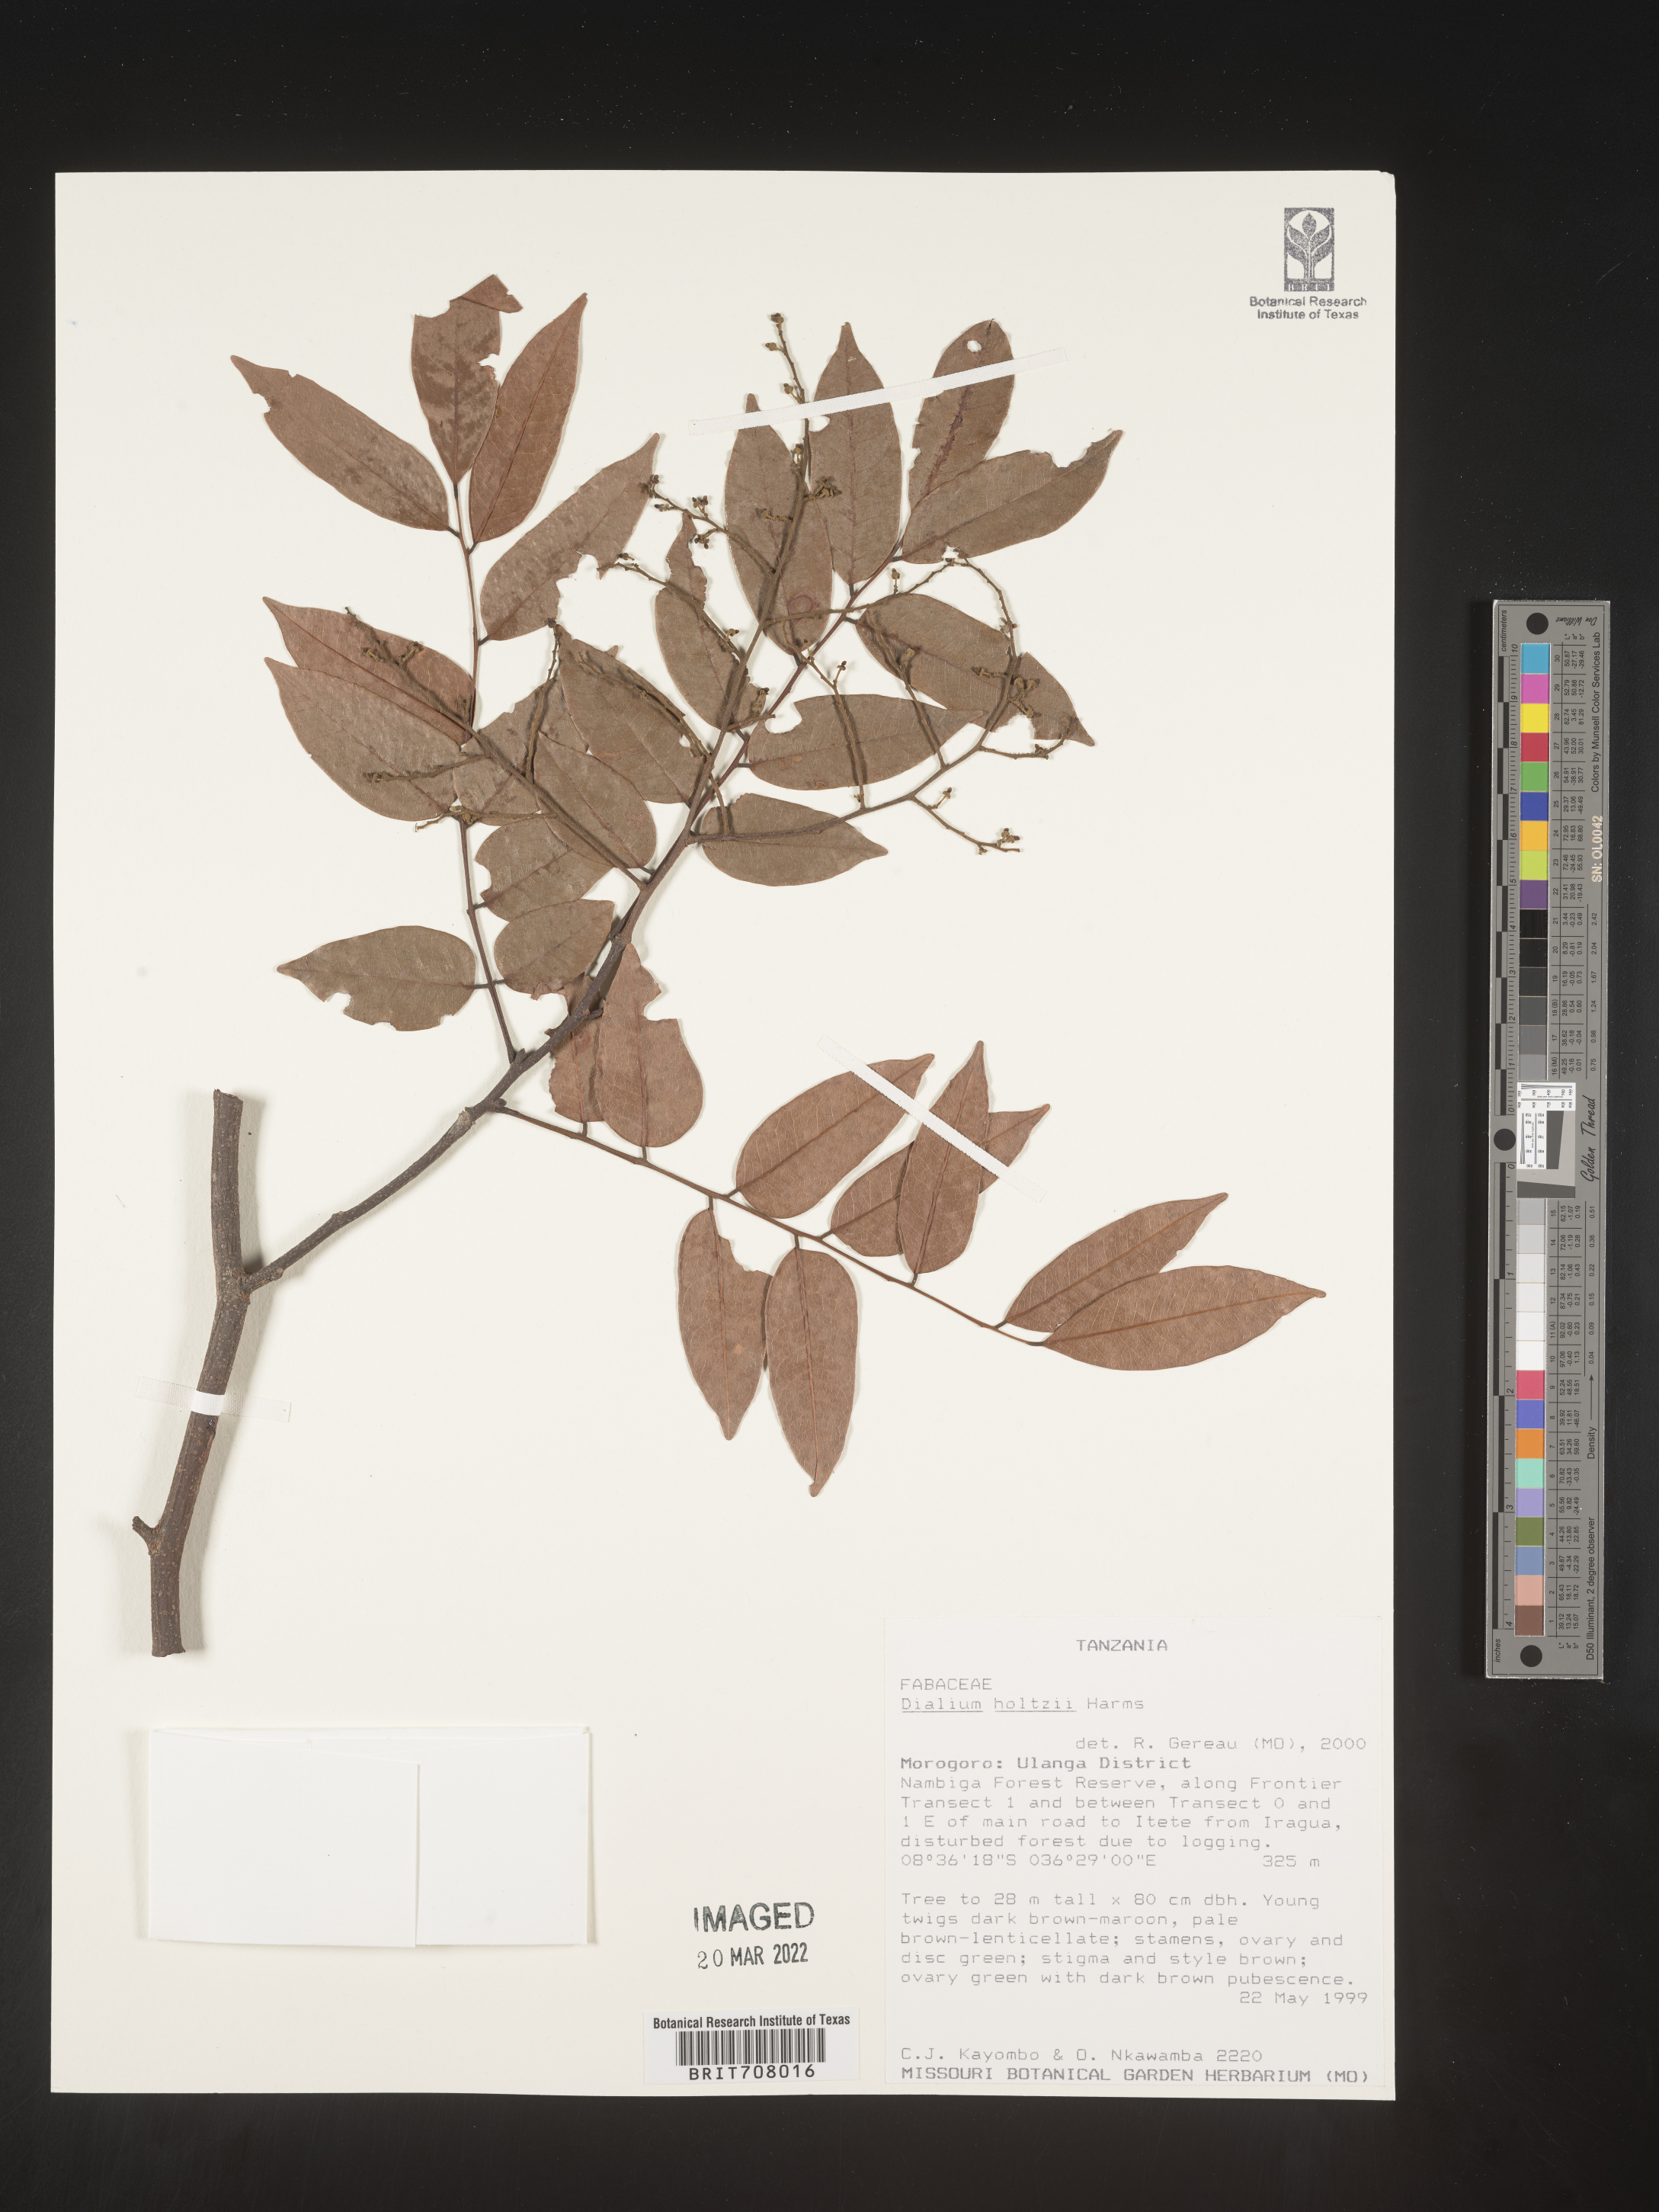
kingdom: Plantae
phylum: Tracheophyta
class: Magnoliopsida
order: Fabales
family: Fabaceae
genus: Dialium
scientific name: Dialium
